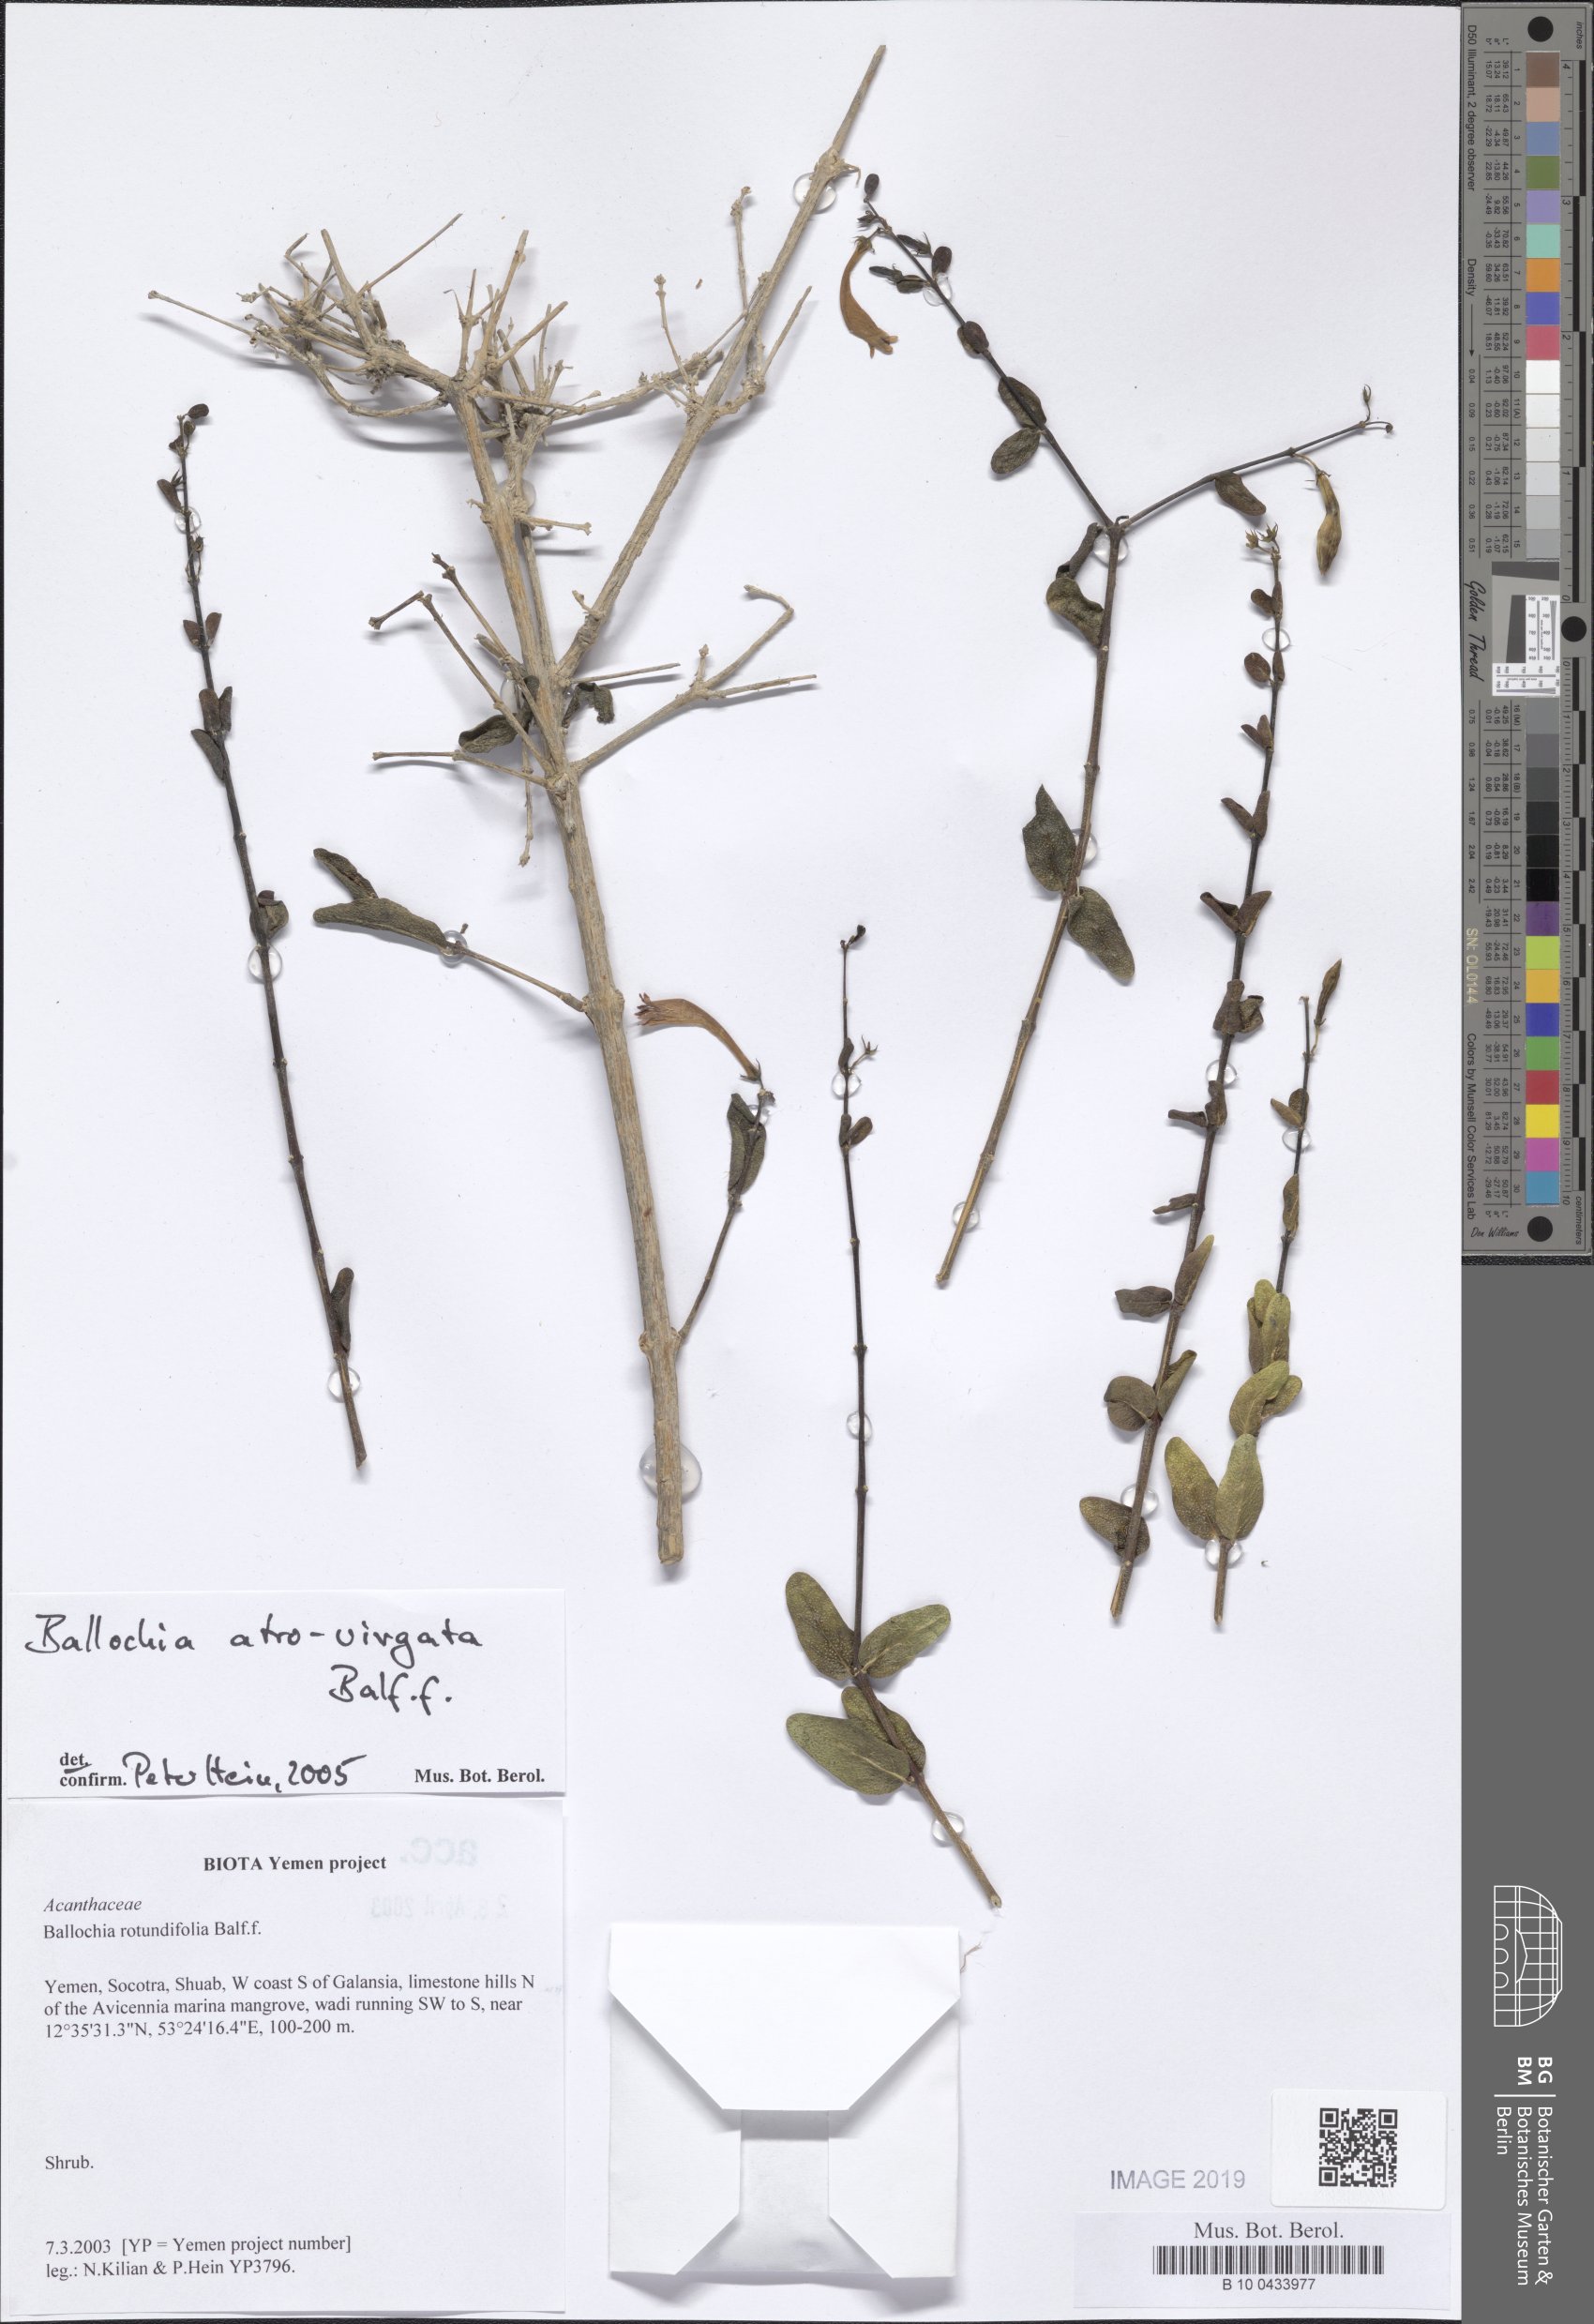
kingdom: Plantae
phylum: Tracheophyta
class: Magnoliopsida
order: Lamiales
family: Acanthaceae
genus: Ballochia
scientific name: Ballochia atrovirgata
